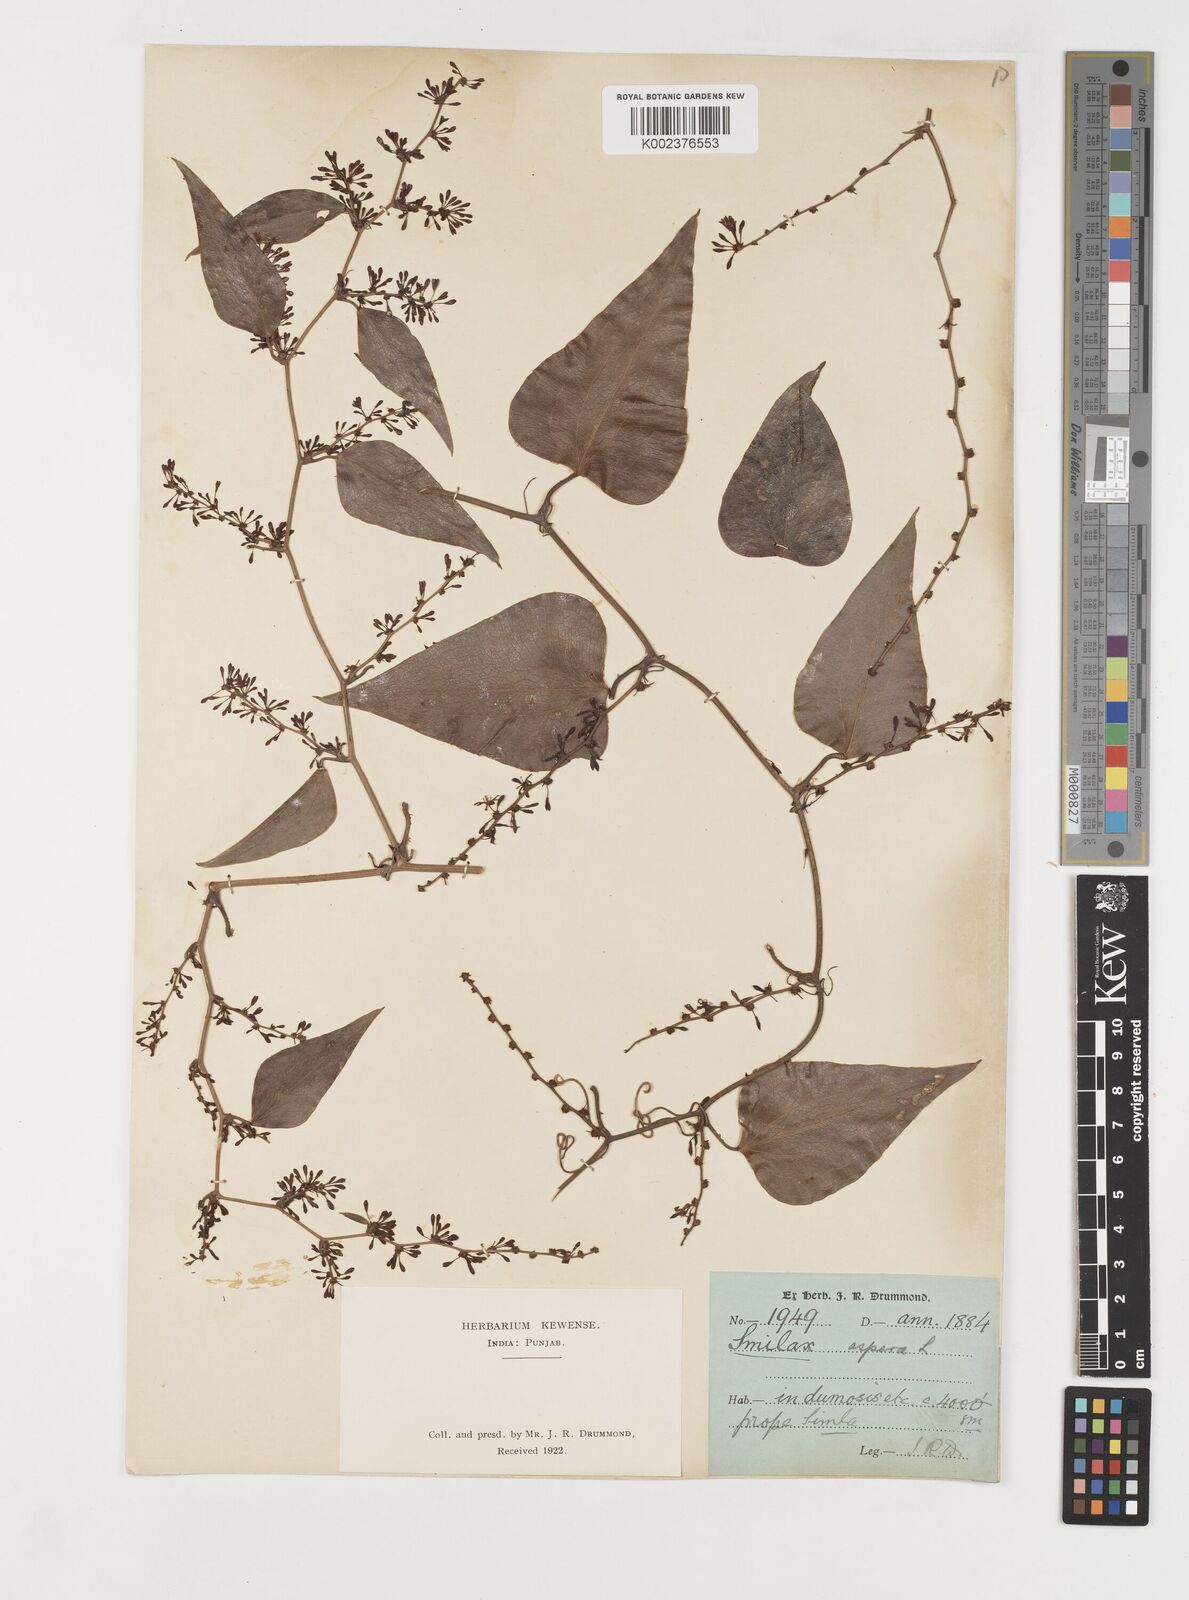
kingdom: Plantae
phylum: Tracheophyta
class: Liliopsida
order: Liliales
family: Smilacaceae
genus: Smilax
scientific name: Smilax aspera
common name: Common smilax
